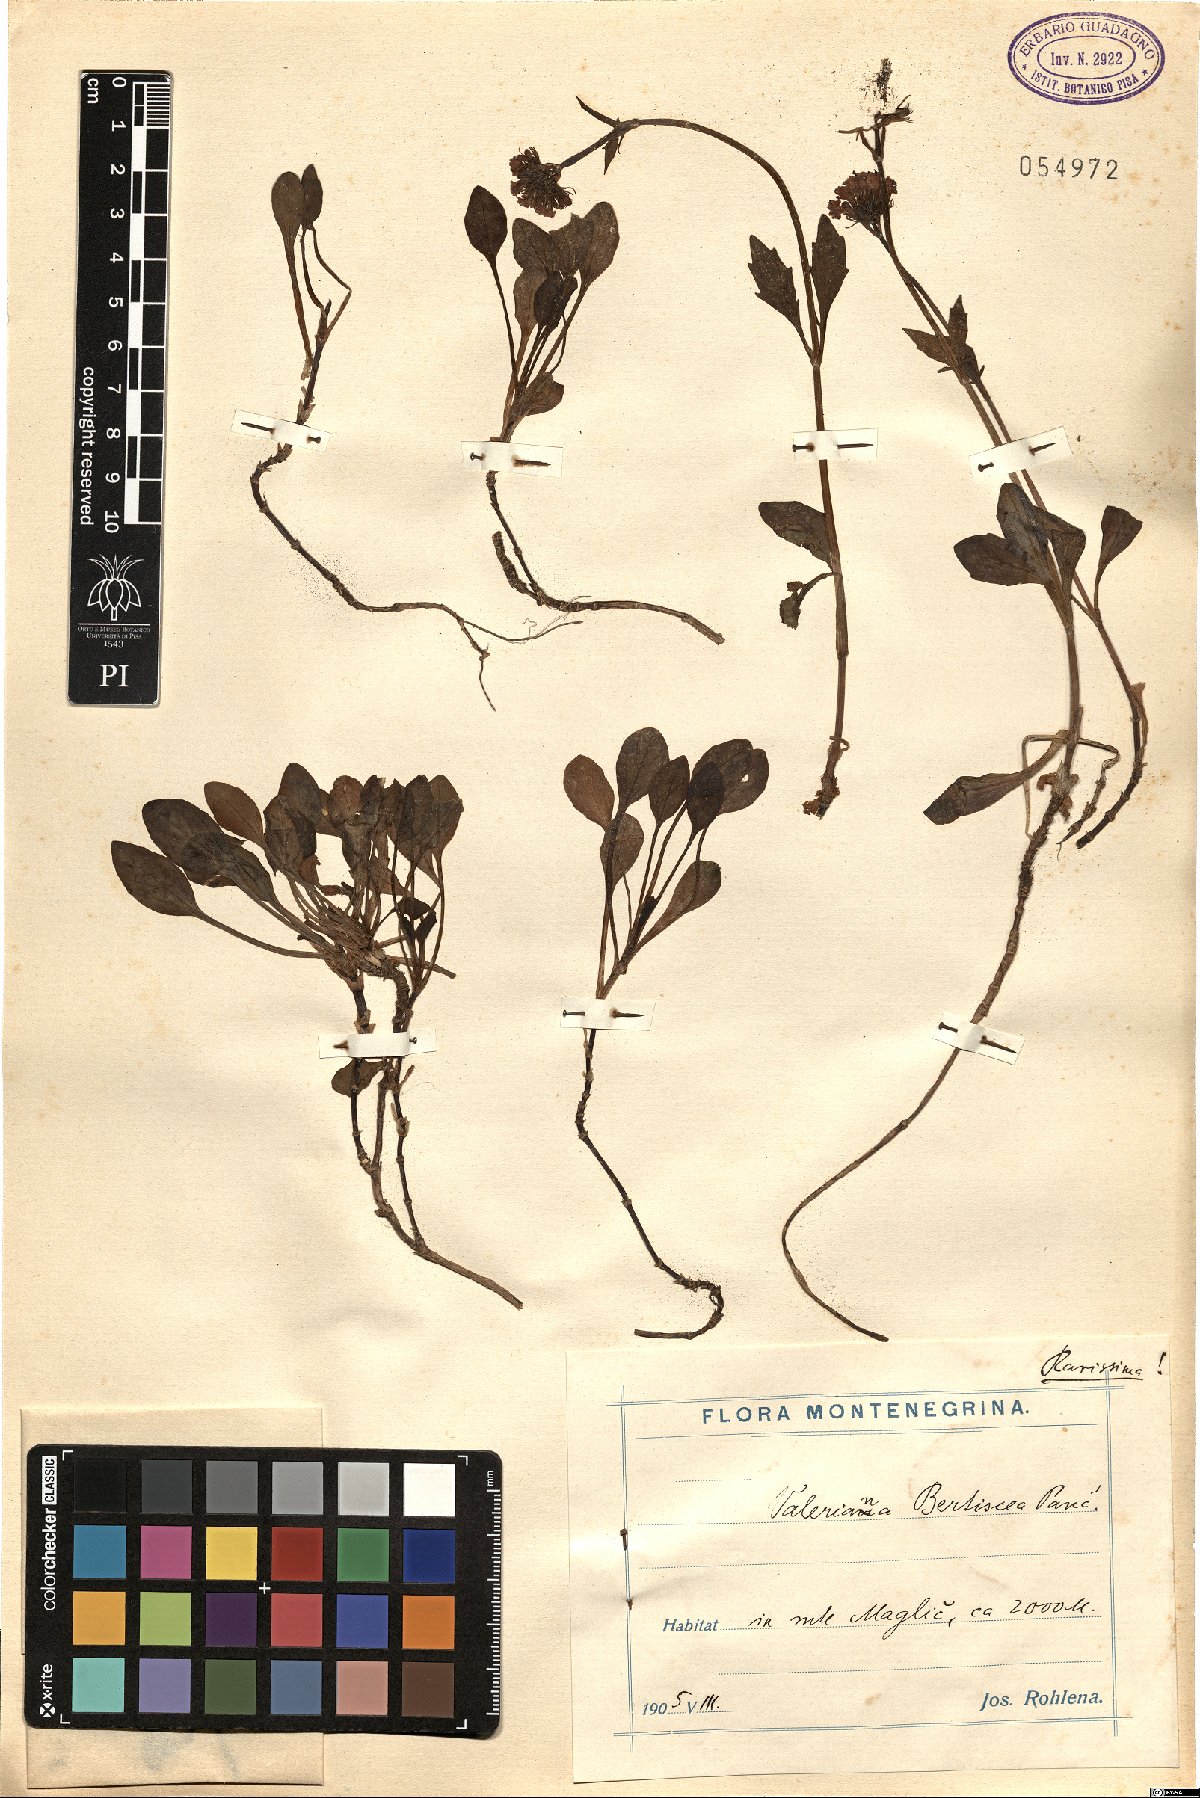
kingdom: Plantae
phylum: Tracheophyta
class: Magnoliopsida
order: Dipsacales
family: Caprifoliaceae
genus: Valeriana
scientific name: Valeriana bertiscea
